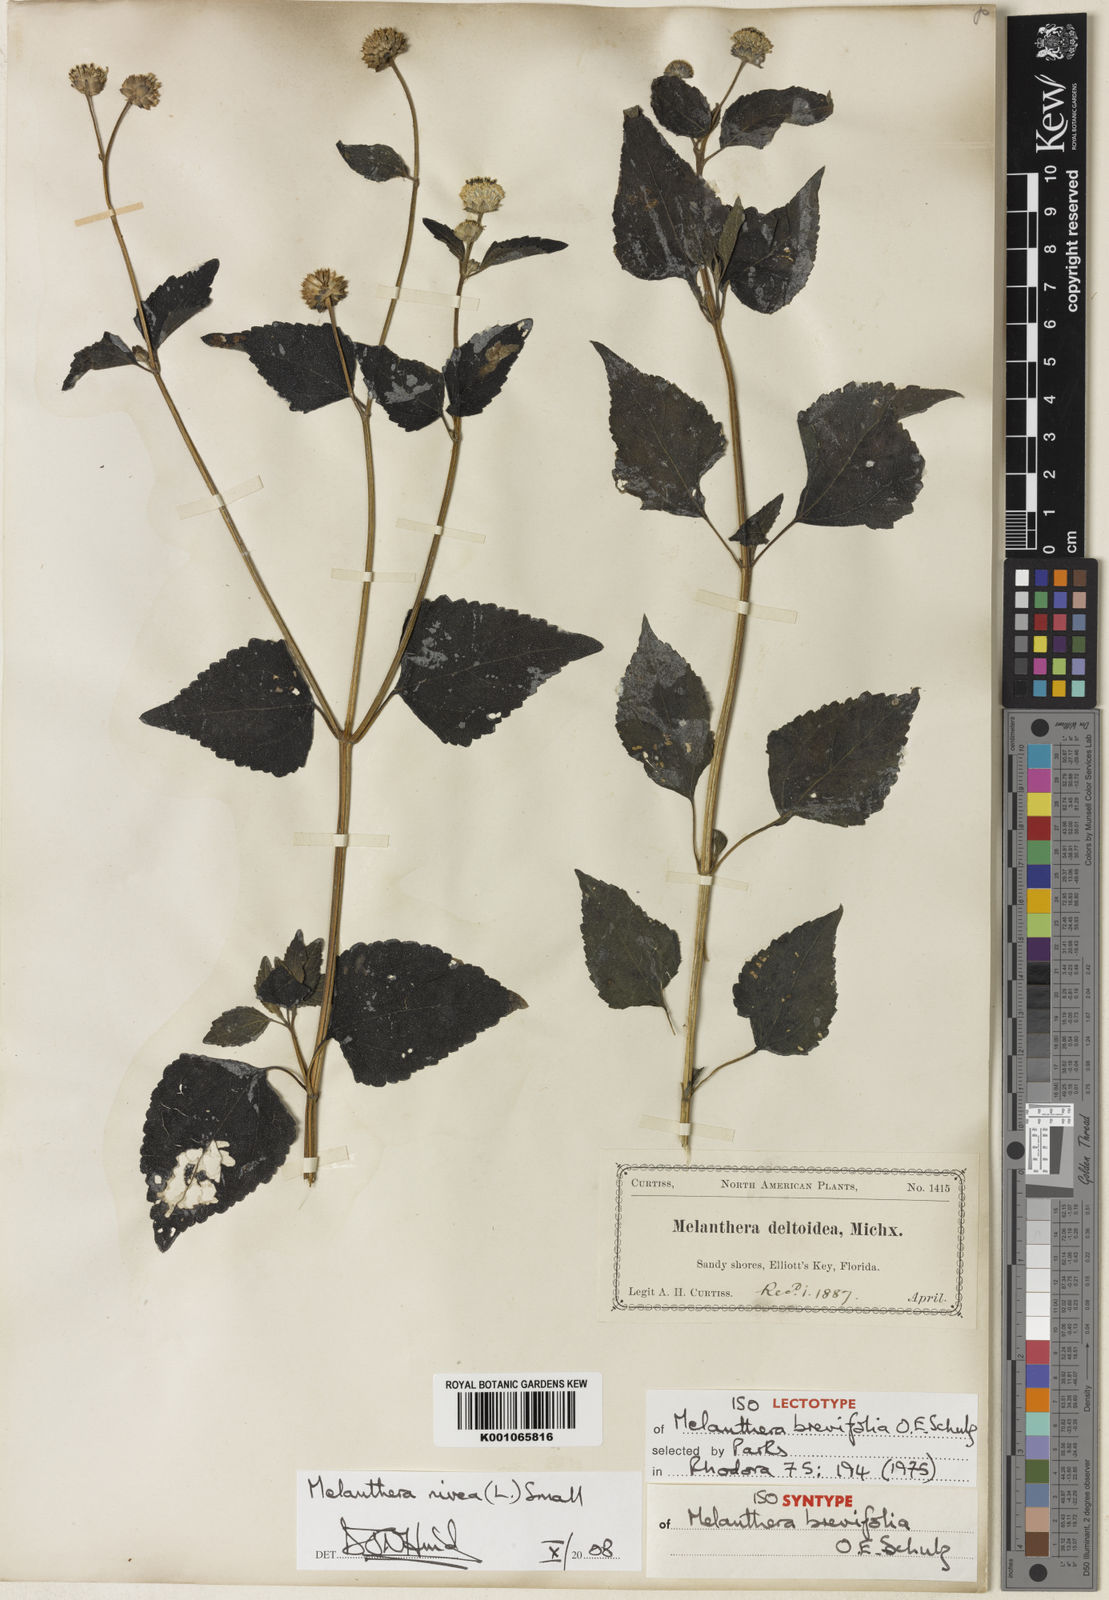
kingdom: Plantae
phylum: Tracheophyta
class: Magnoliopsida
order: Asterales
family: Asteraceae
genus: Melanthera
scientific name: Melanthera nivea
